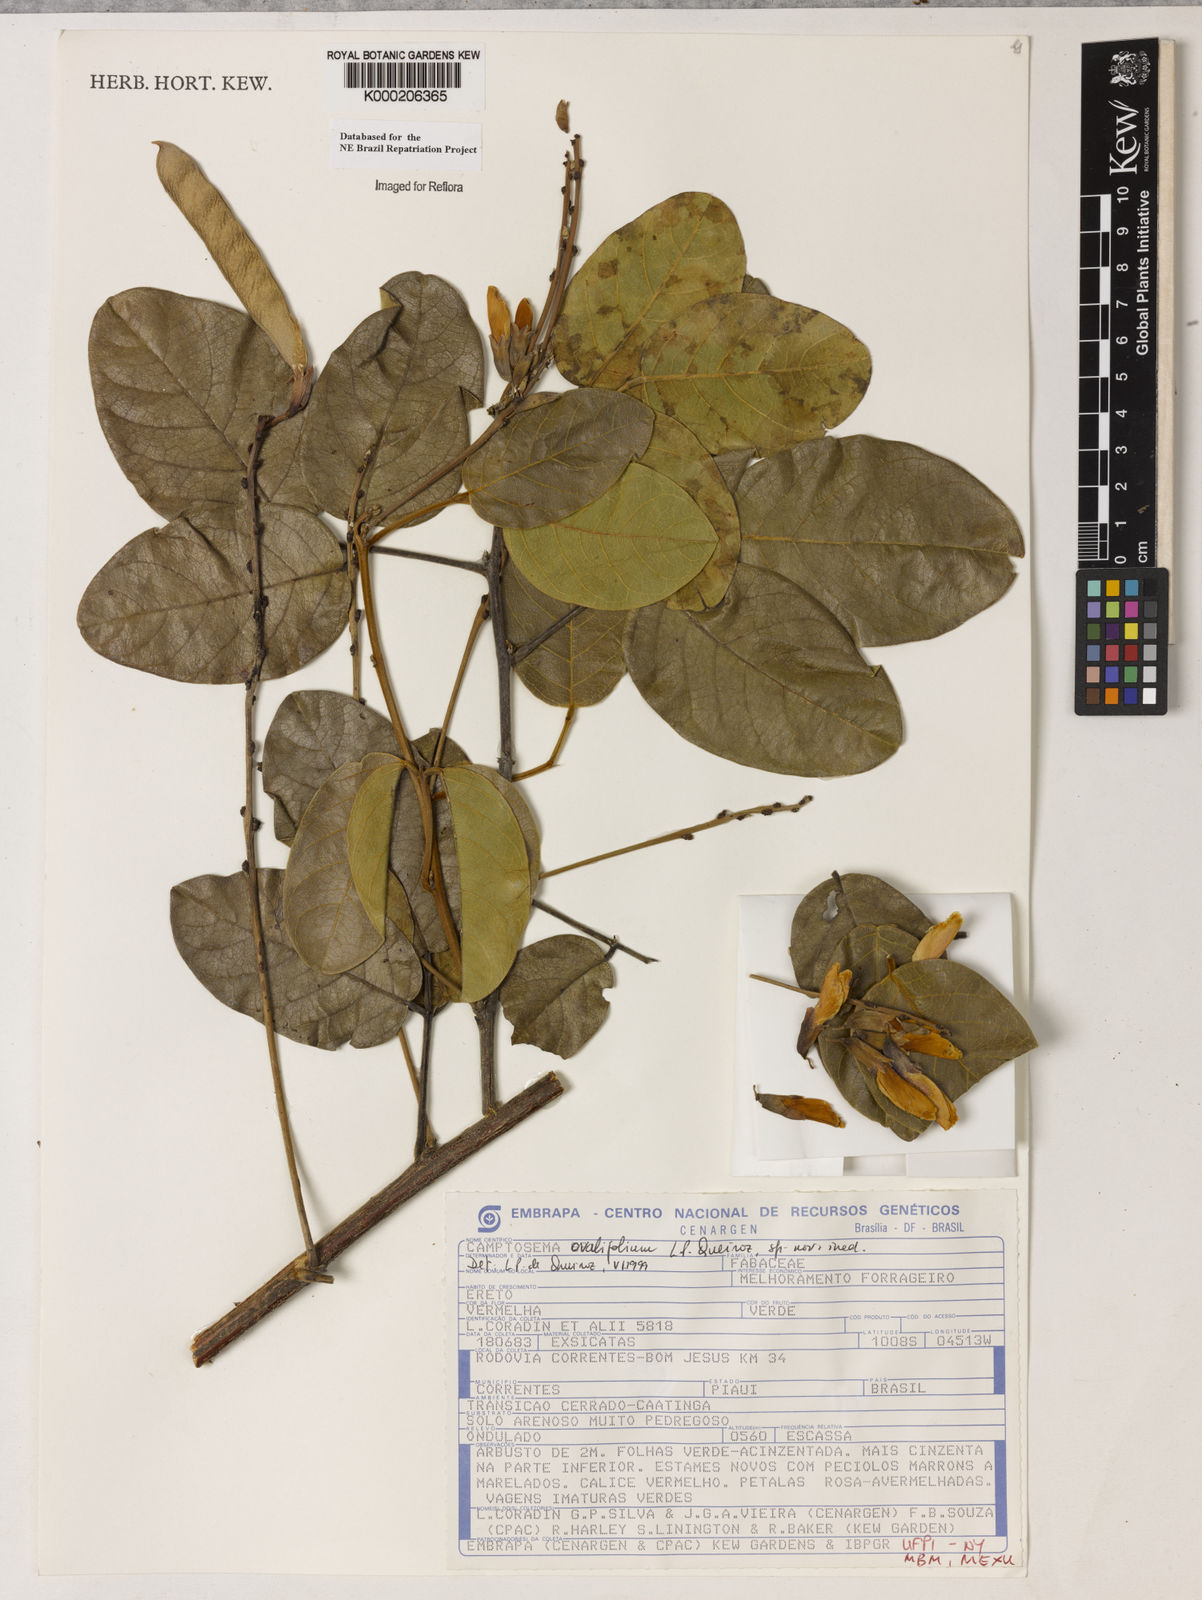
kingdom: Plantae
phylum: Tracheophyta
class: Magnoliopsida
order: Fabales
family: Fabaceae
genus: Camptosema
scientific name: Camptosema
